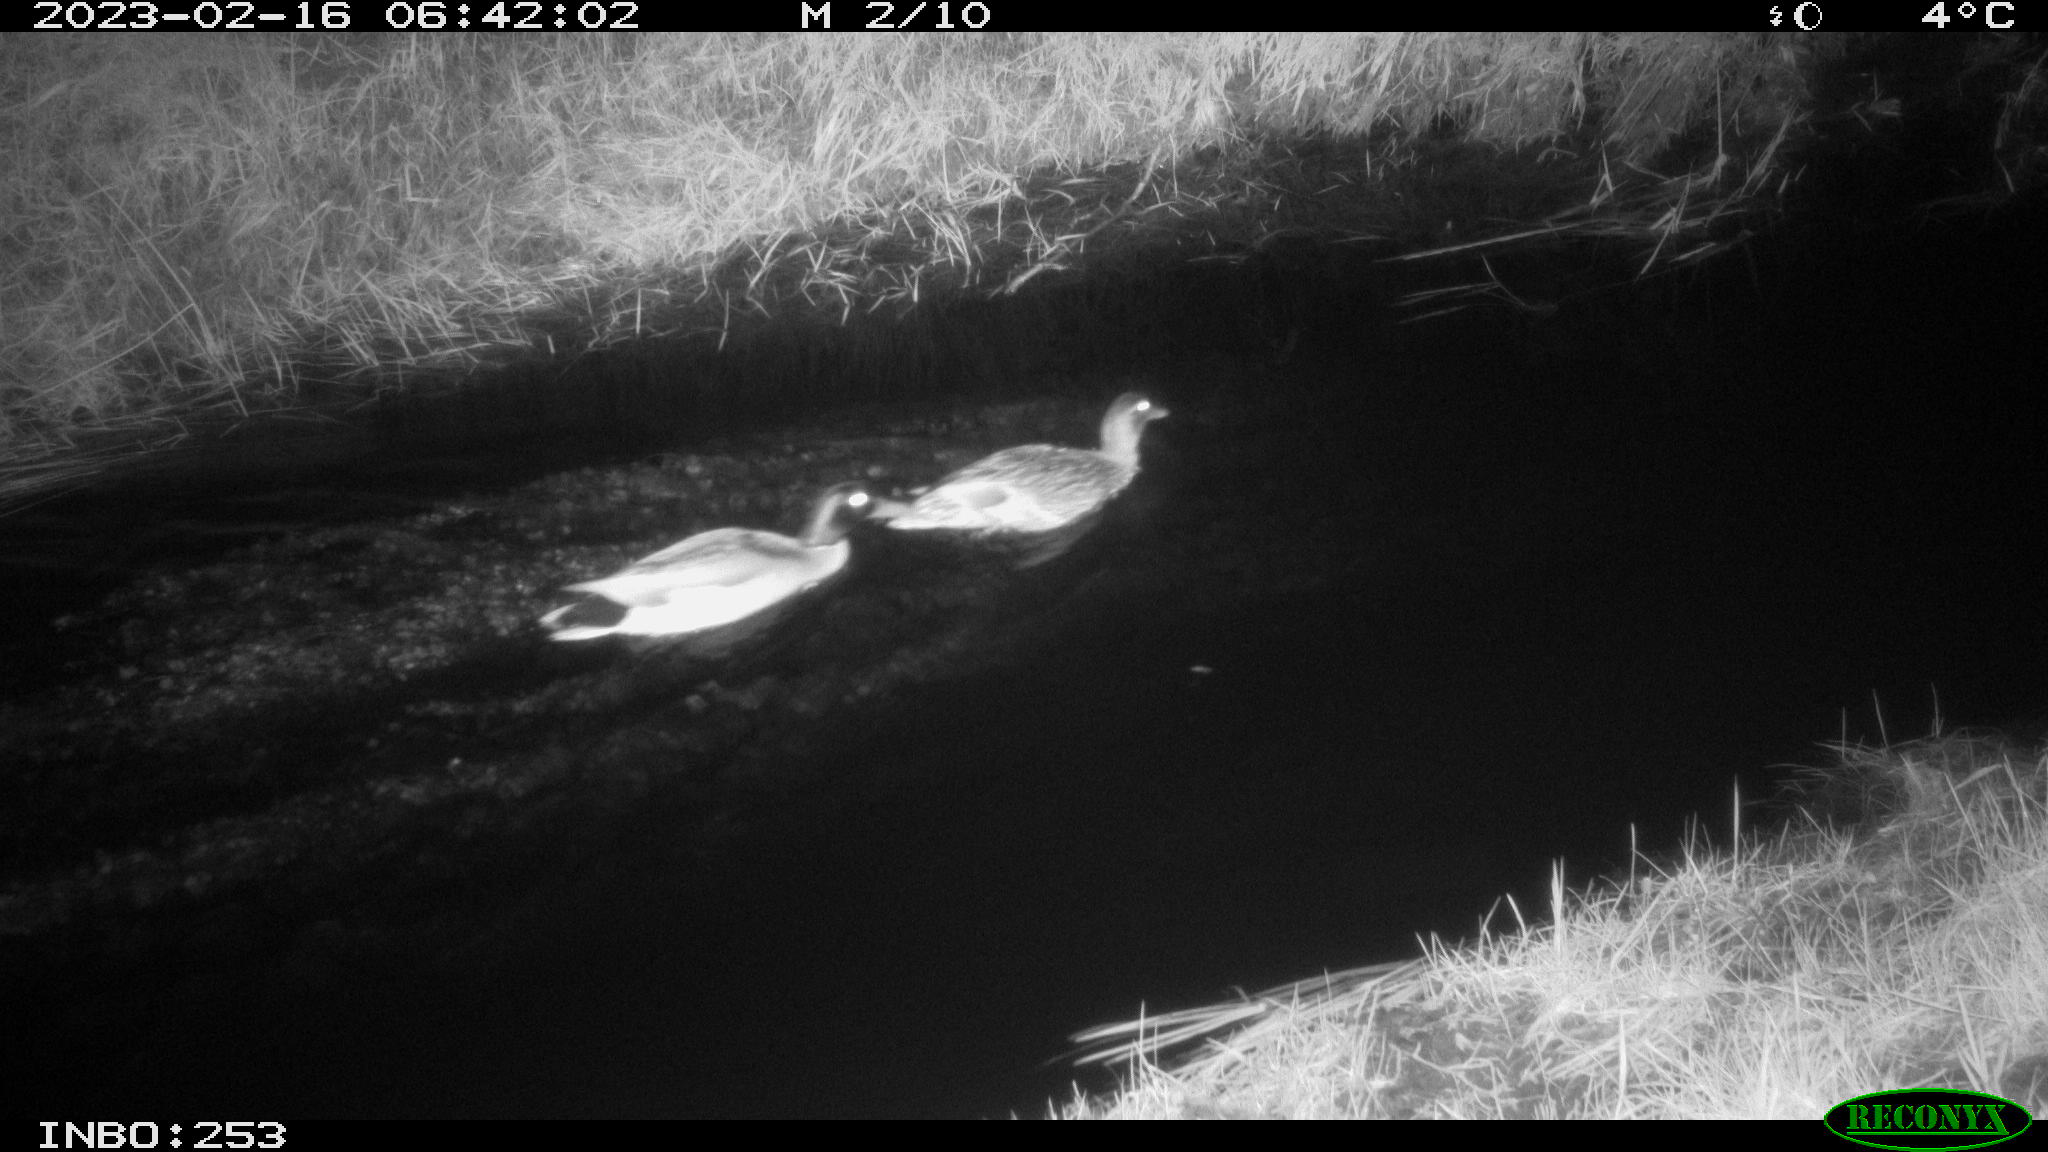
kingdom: Animalia
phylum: Chordata
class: Aves
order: Anseriformes
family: Anatidae
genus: Anas
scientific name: Anas
